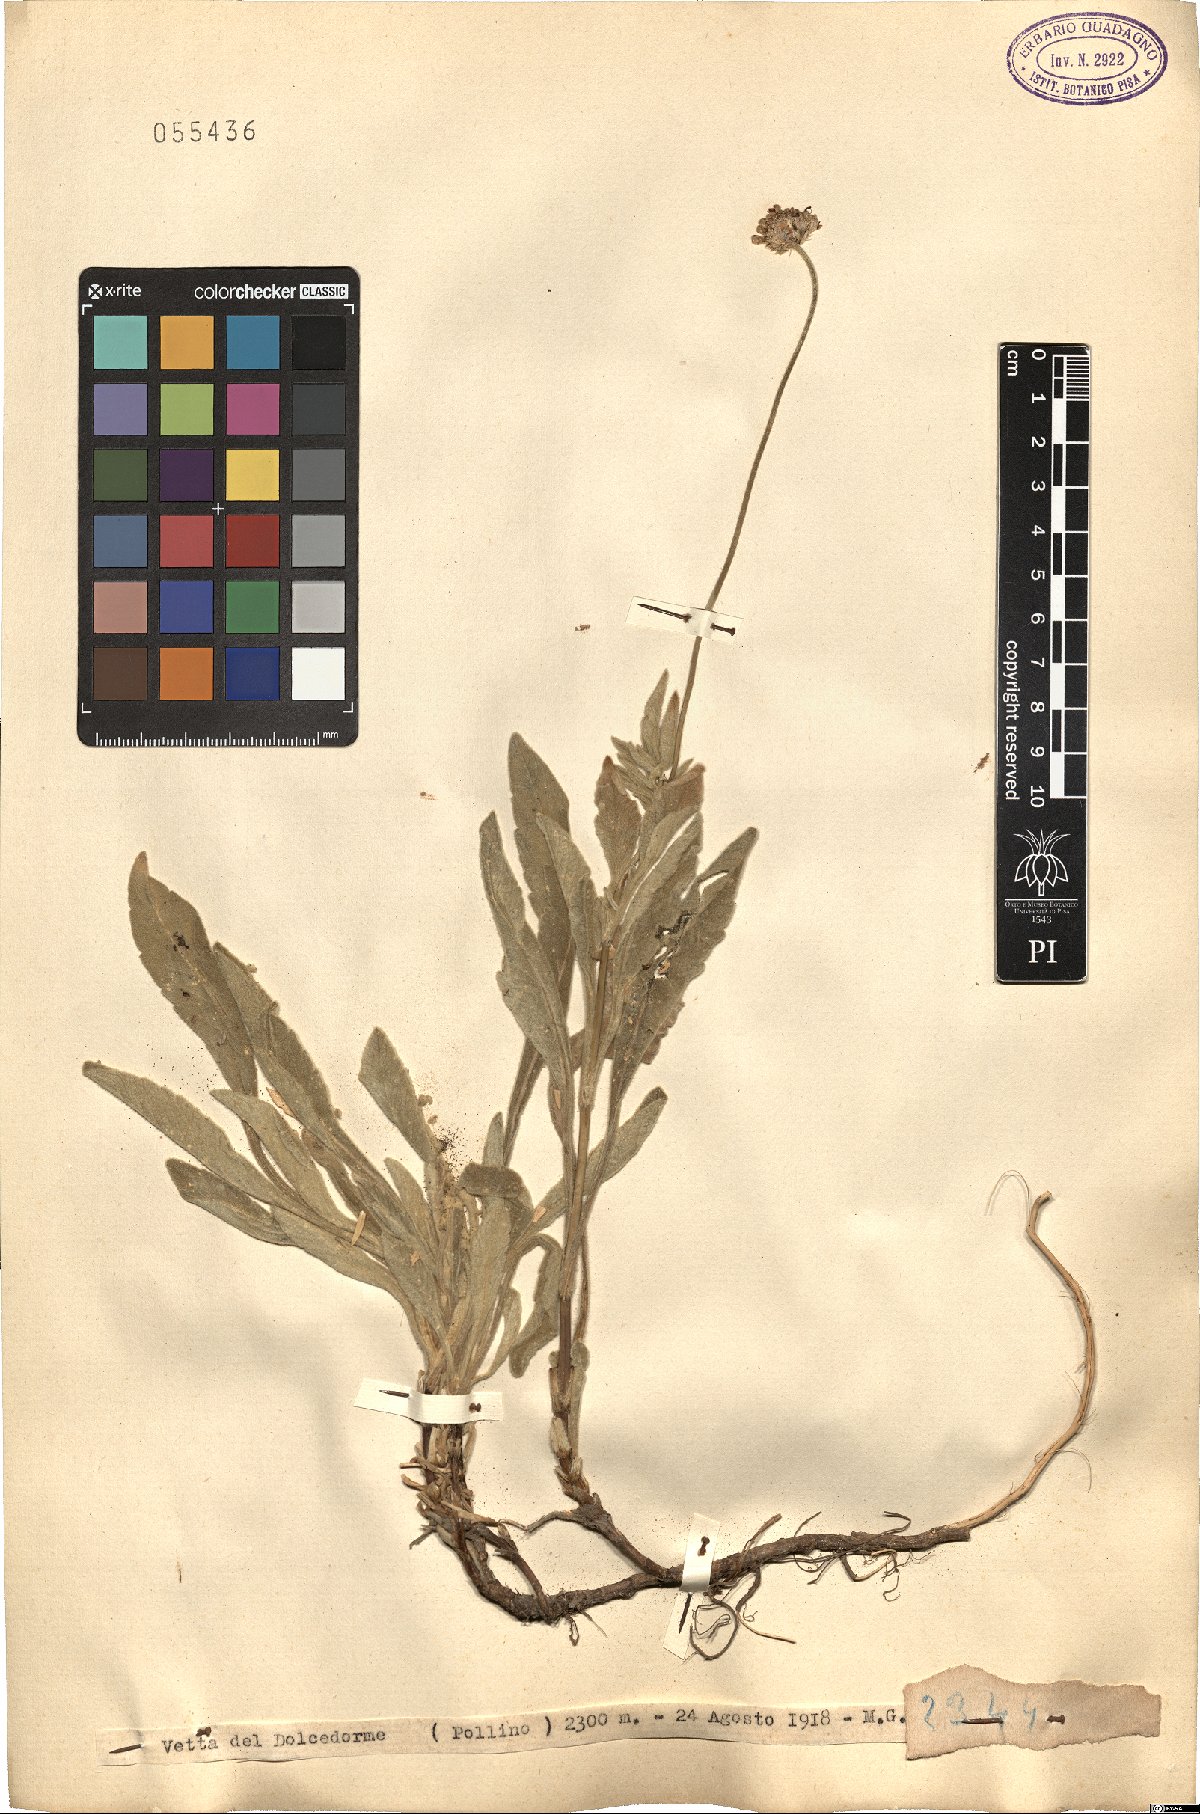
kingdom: Plantae
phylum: Tracheophyta
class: Magnoliopsida
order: Dipsacales
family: Caprifoliaceae
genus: Scabiosa
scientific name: Scabiosa
